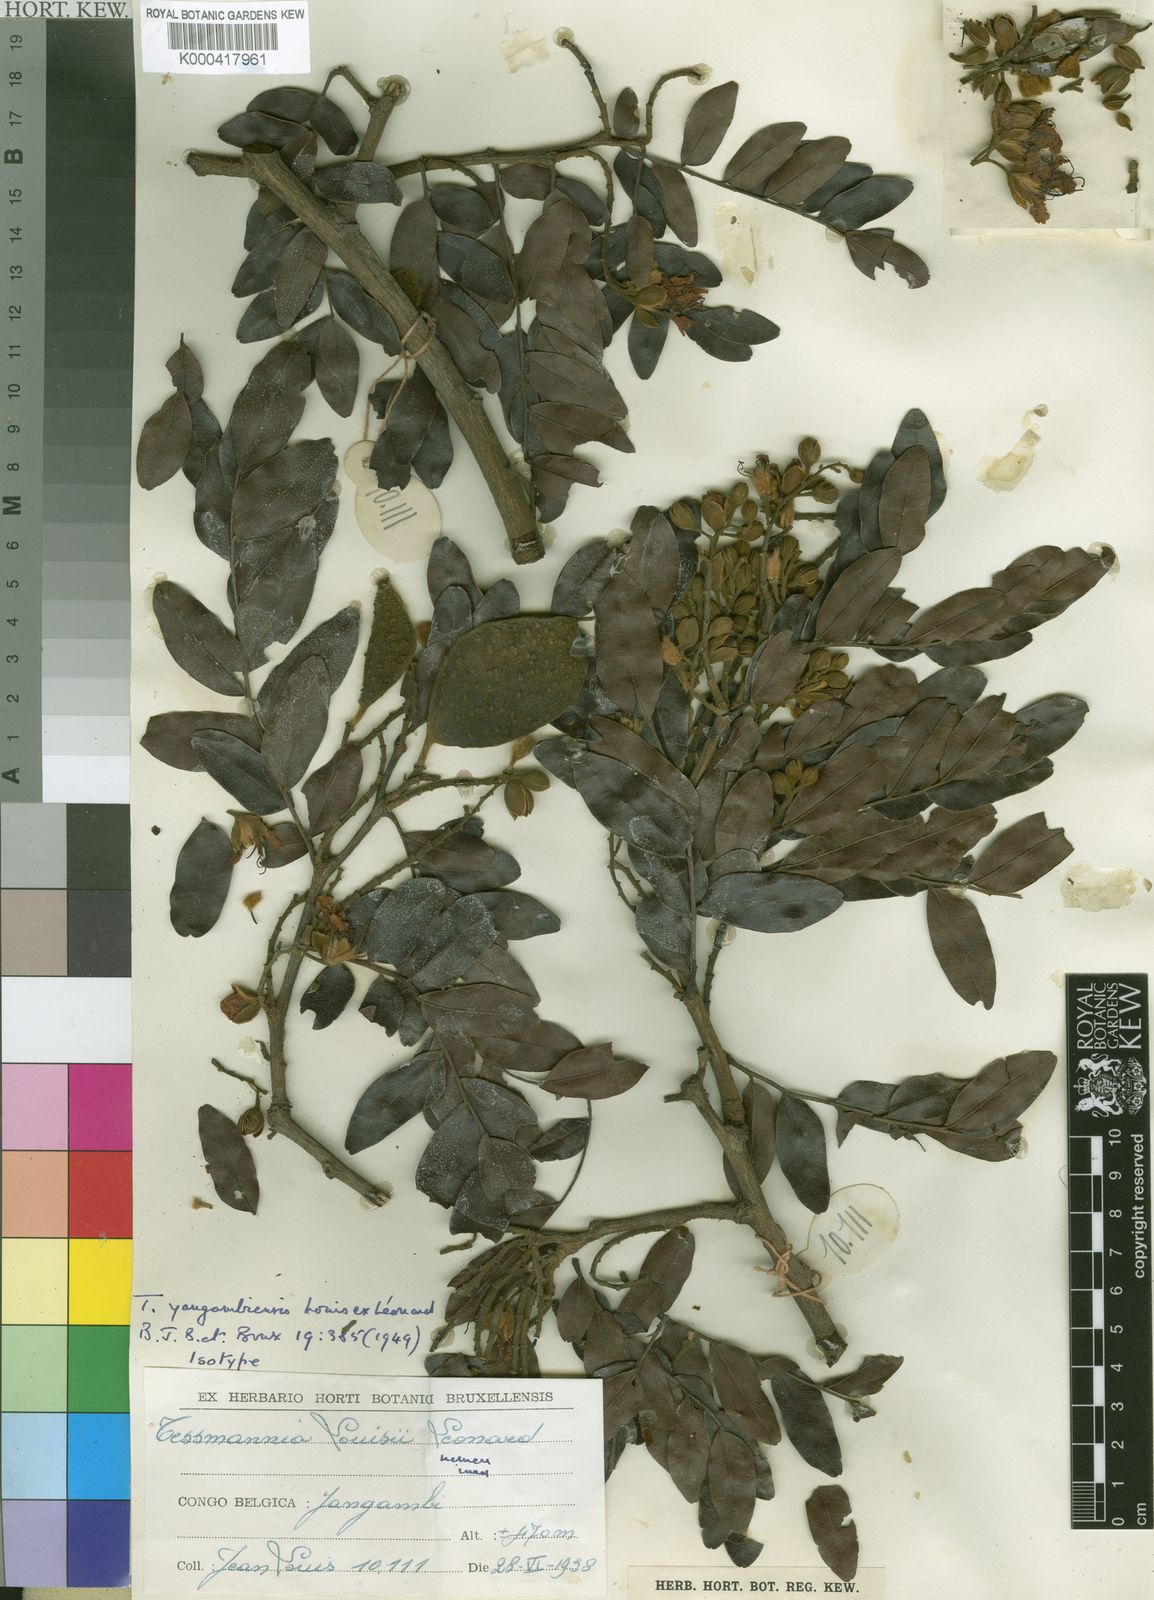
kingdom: Plantae
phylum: Tracheophyta
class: Magnoliopsida
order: Fabales
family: Fabaceae
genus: Tessmannia
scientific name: Tessmannia
